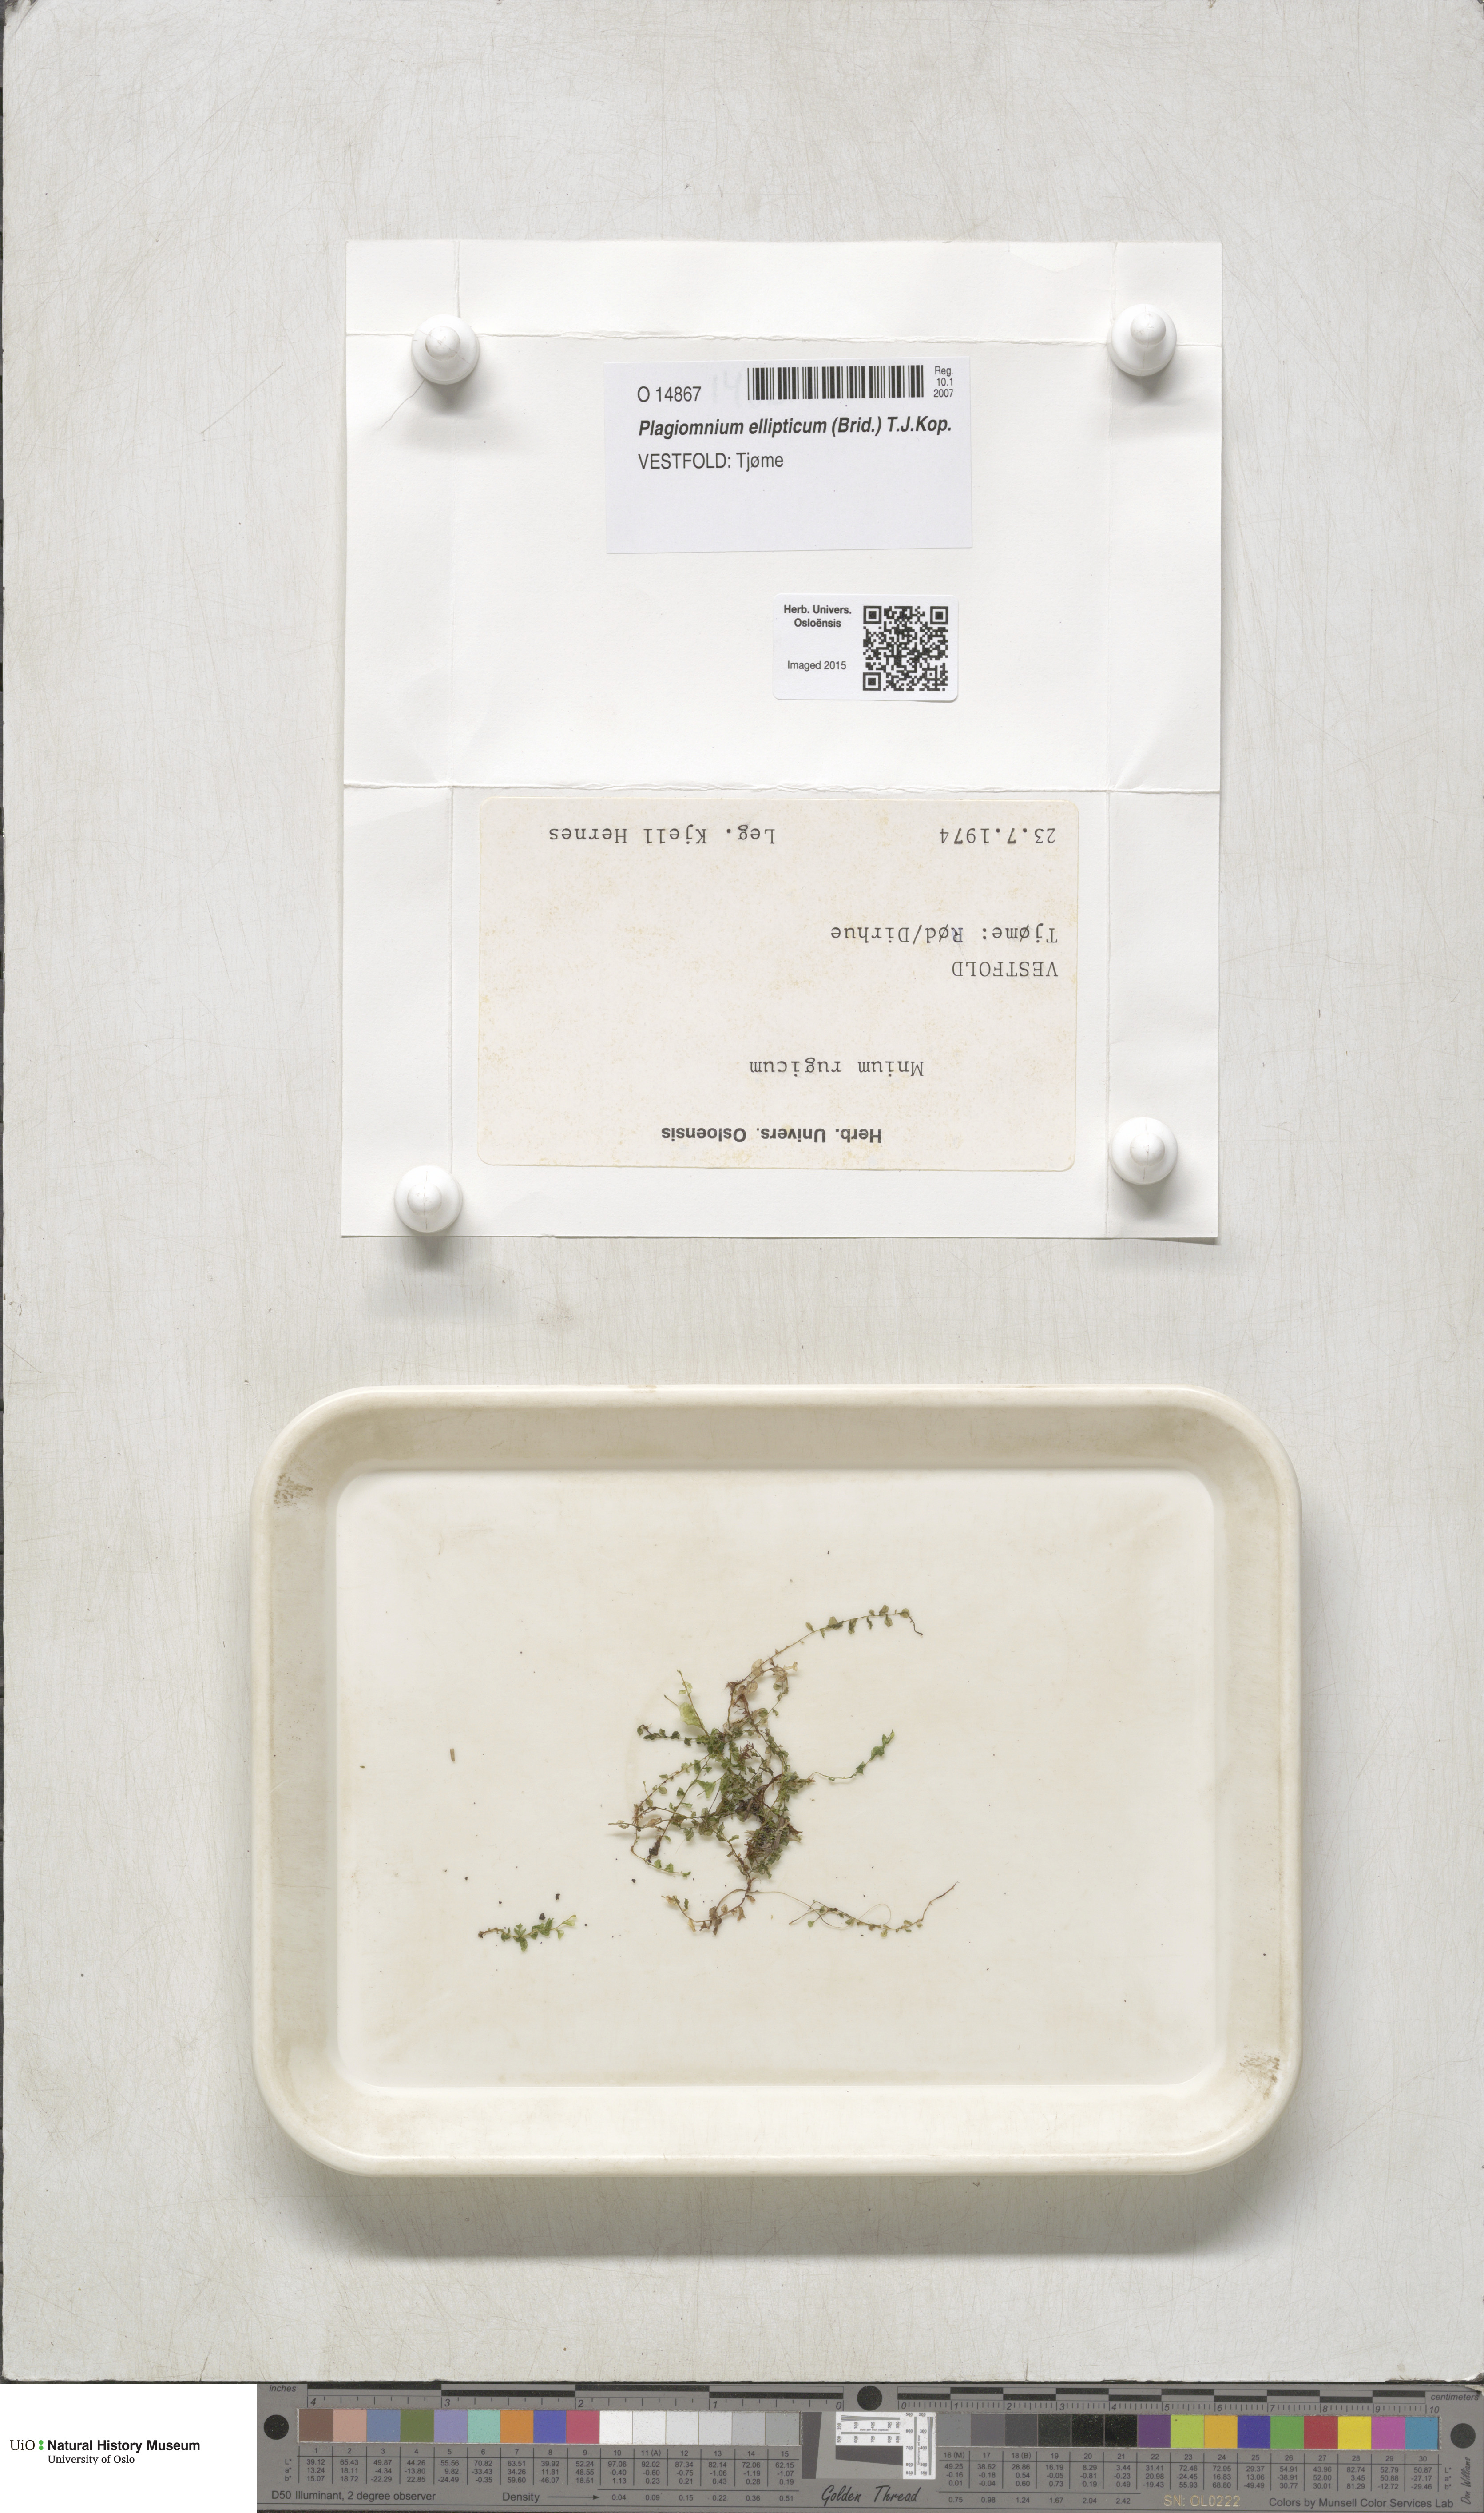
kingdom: Plantae
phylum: Bryophyta
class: Bryopsida
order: Bryales
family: Mniaceae
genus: Plagiomnium
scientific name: Plagiomnium ellipticum
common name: Marsh leafy moss
